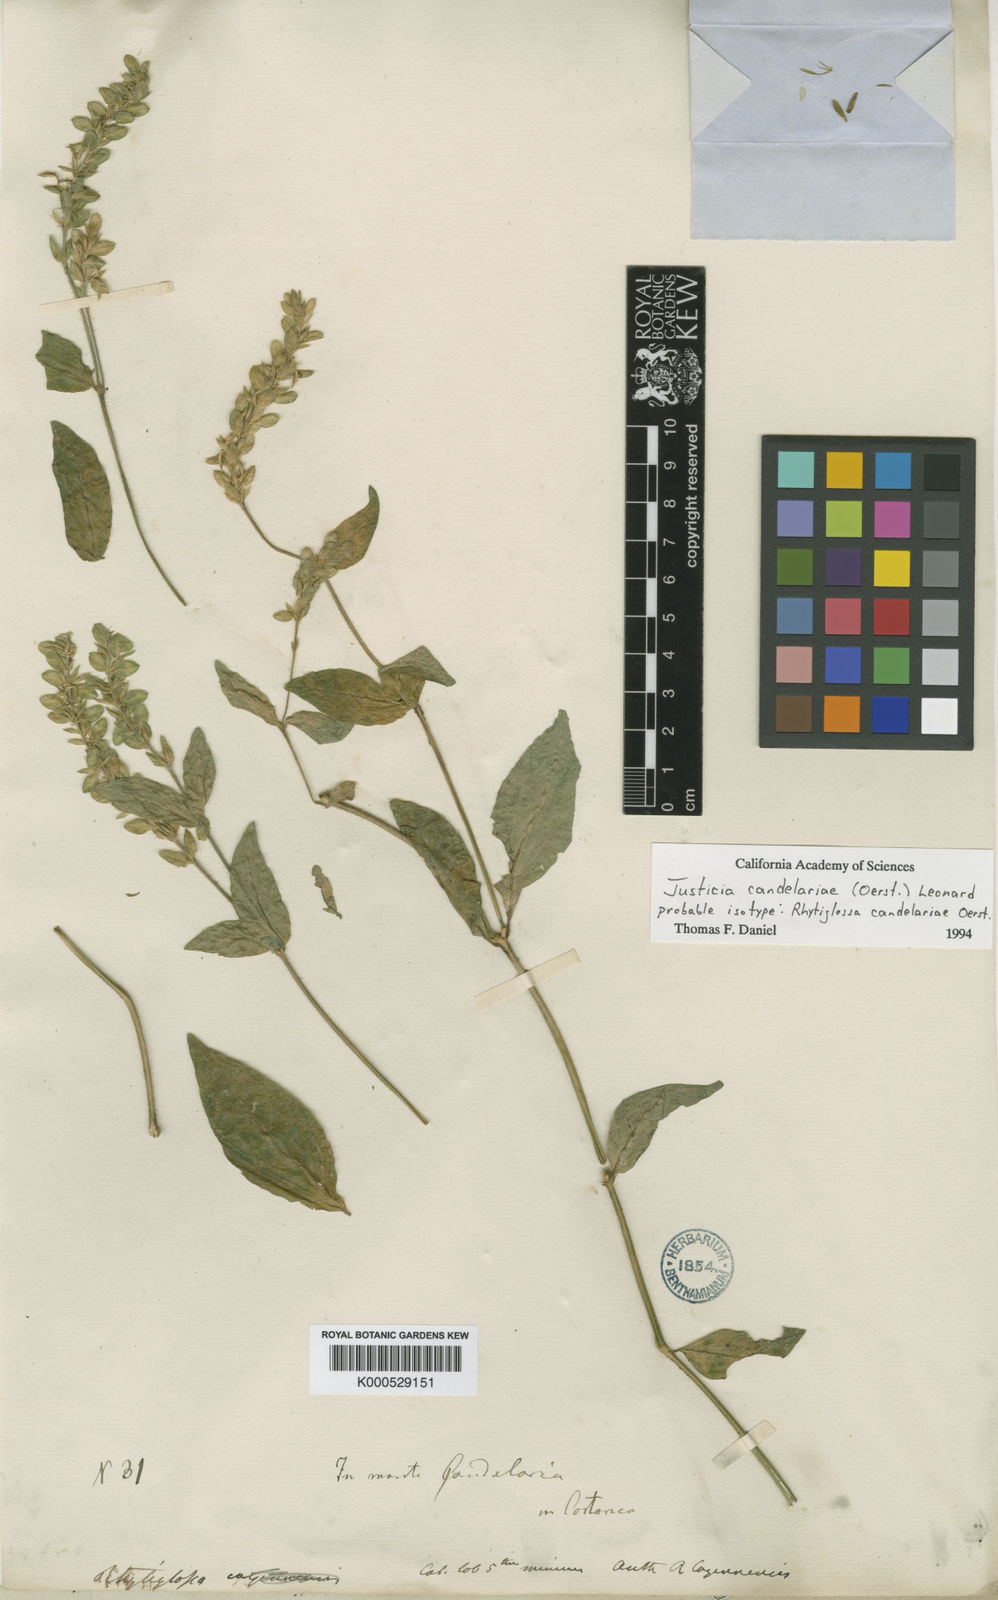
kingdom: Plantae
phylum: Tracheophyta
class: Magnoliopsida
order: Lamiales
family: Acanthaceae
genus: Dianthera
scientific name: Dianthera candelariae
